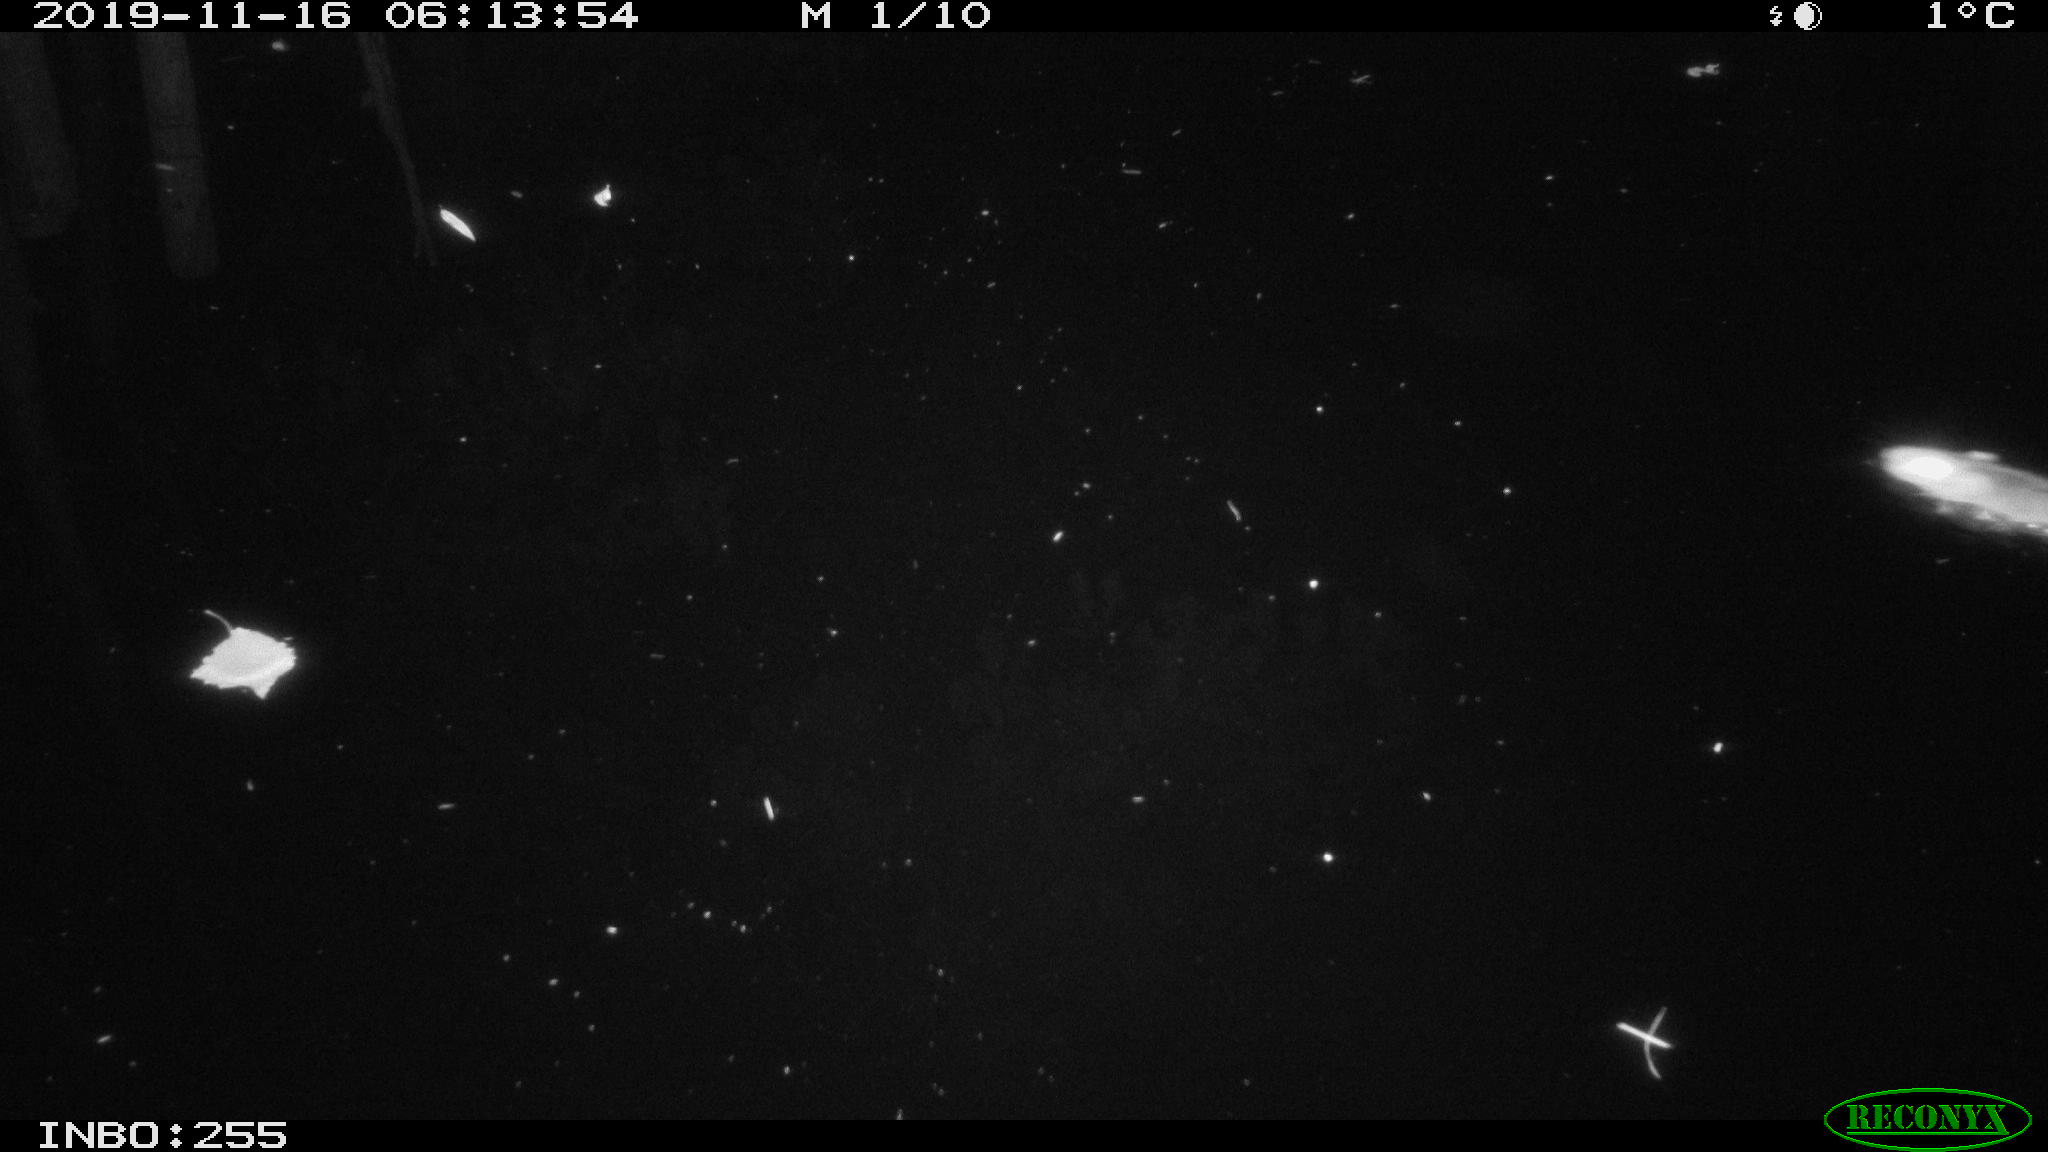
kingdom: Animalia
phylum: Chordata
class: Mammalia
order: Rodentia
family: Muridae
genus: Rattus
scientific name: Rattus norvegicus
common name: Brown rat
